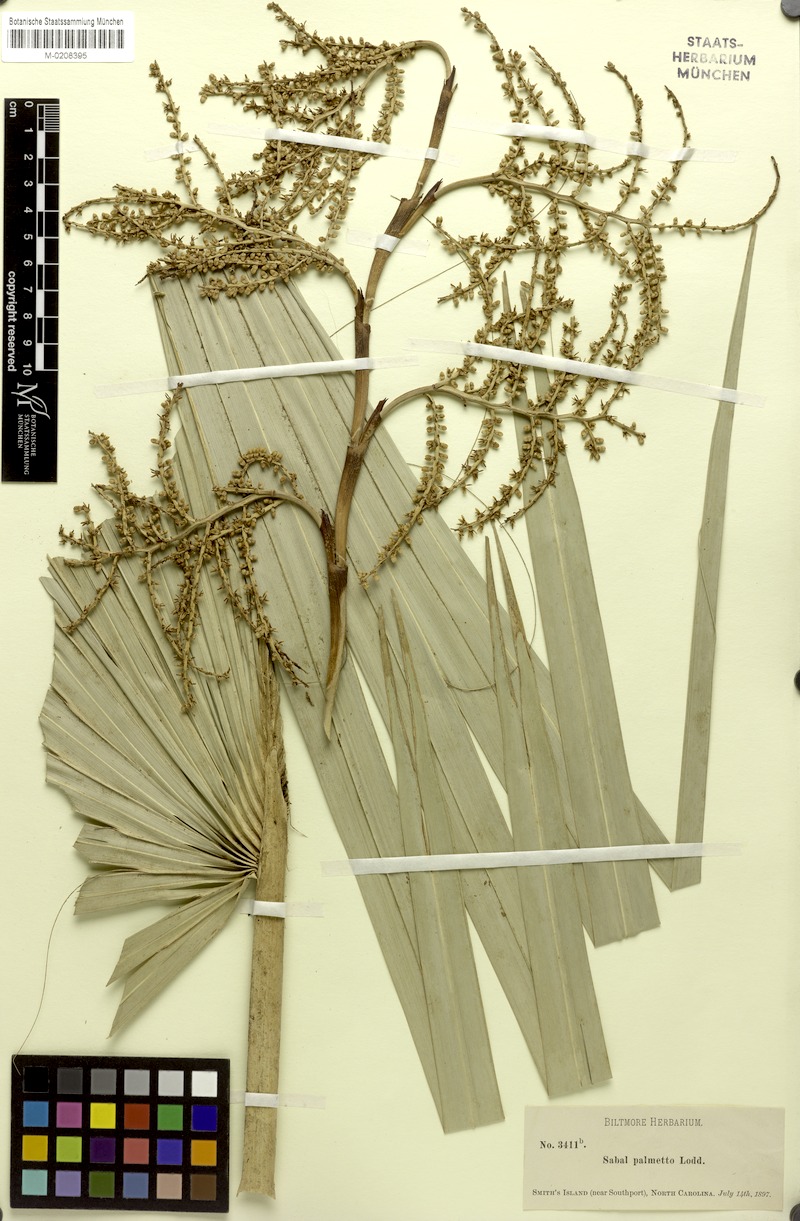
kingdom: Plantae
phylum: Tracheophyta
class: Liliopsida
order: Arecales
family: Arecaceae
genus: Sabal
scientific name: Sabal palmetto
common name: Blue palmetto
